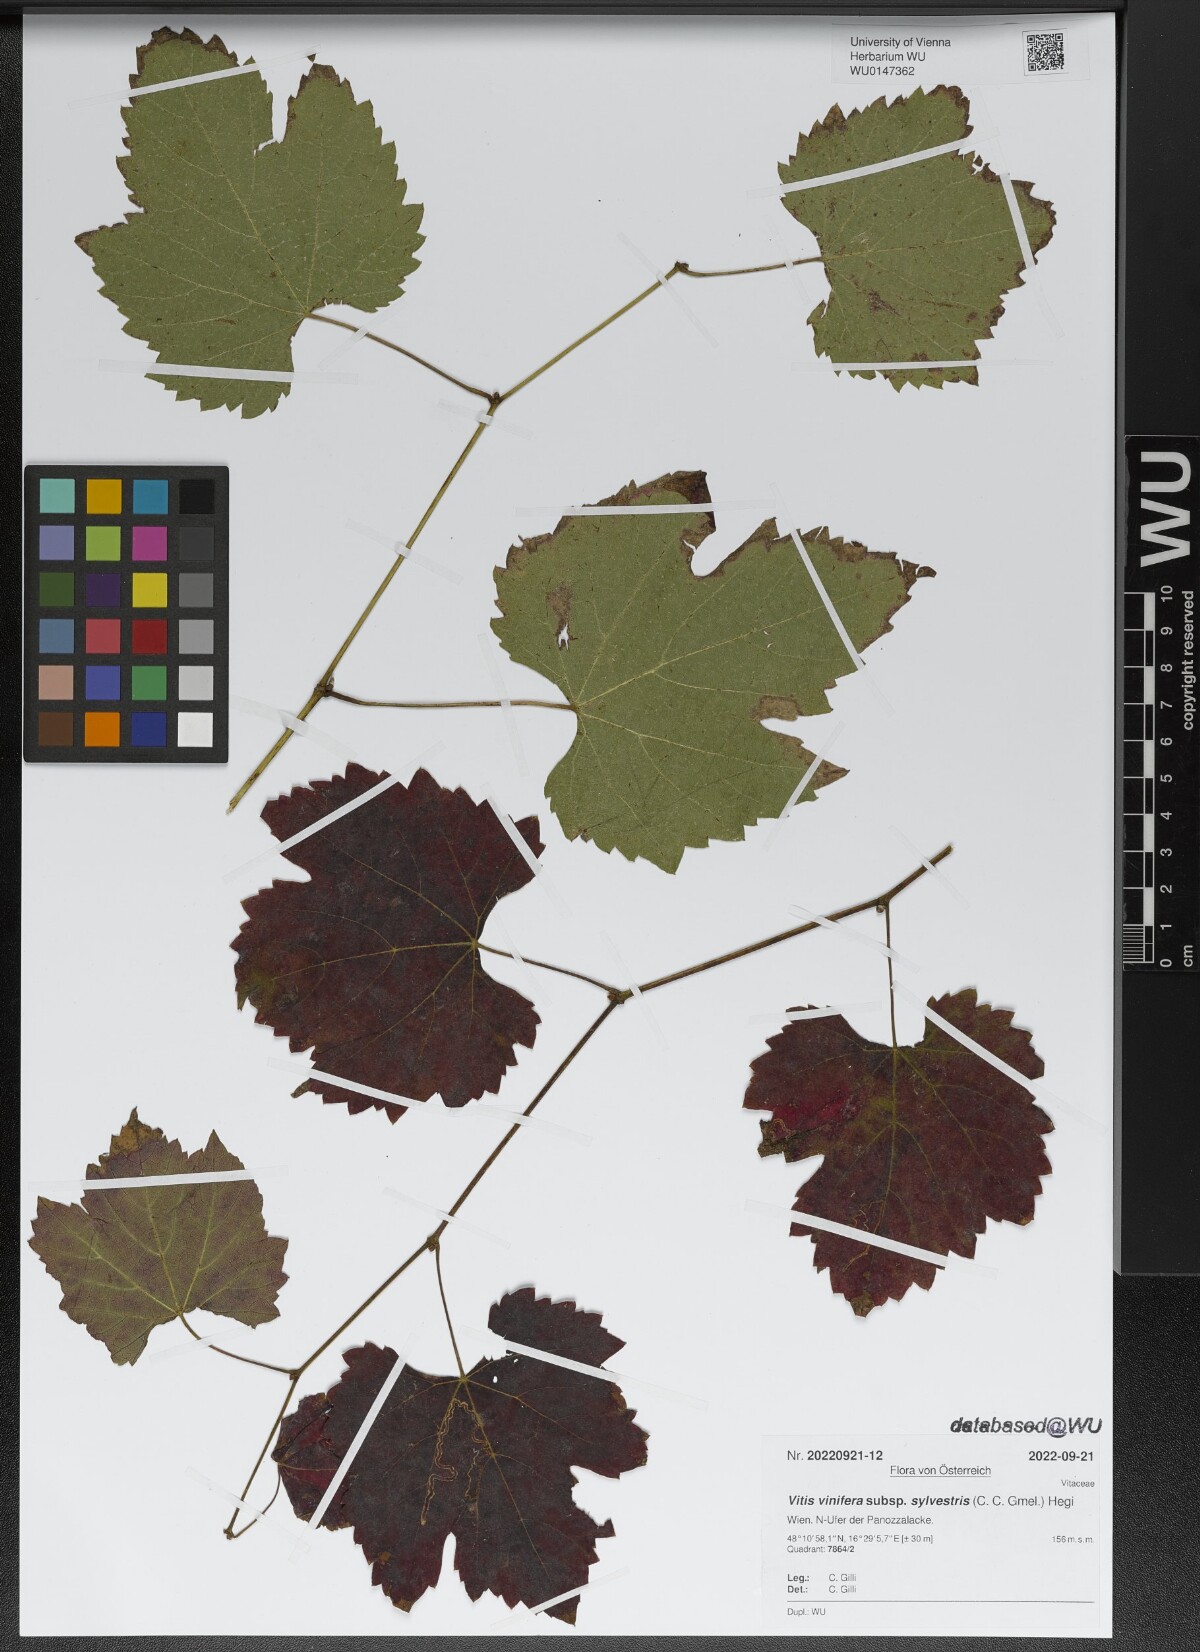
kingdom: Plantae
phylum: Tracheophyta
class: Magnoliopsida
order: Vitales
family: Vitaceae
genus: Vitis
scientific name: Vitis gmelinii
